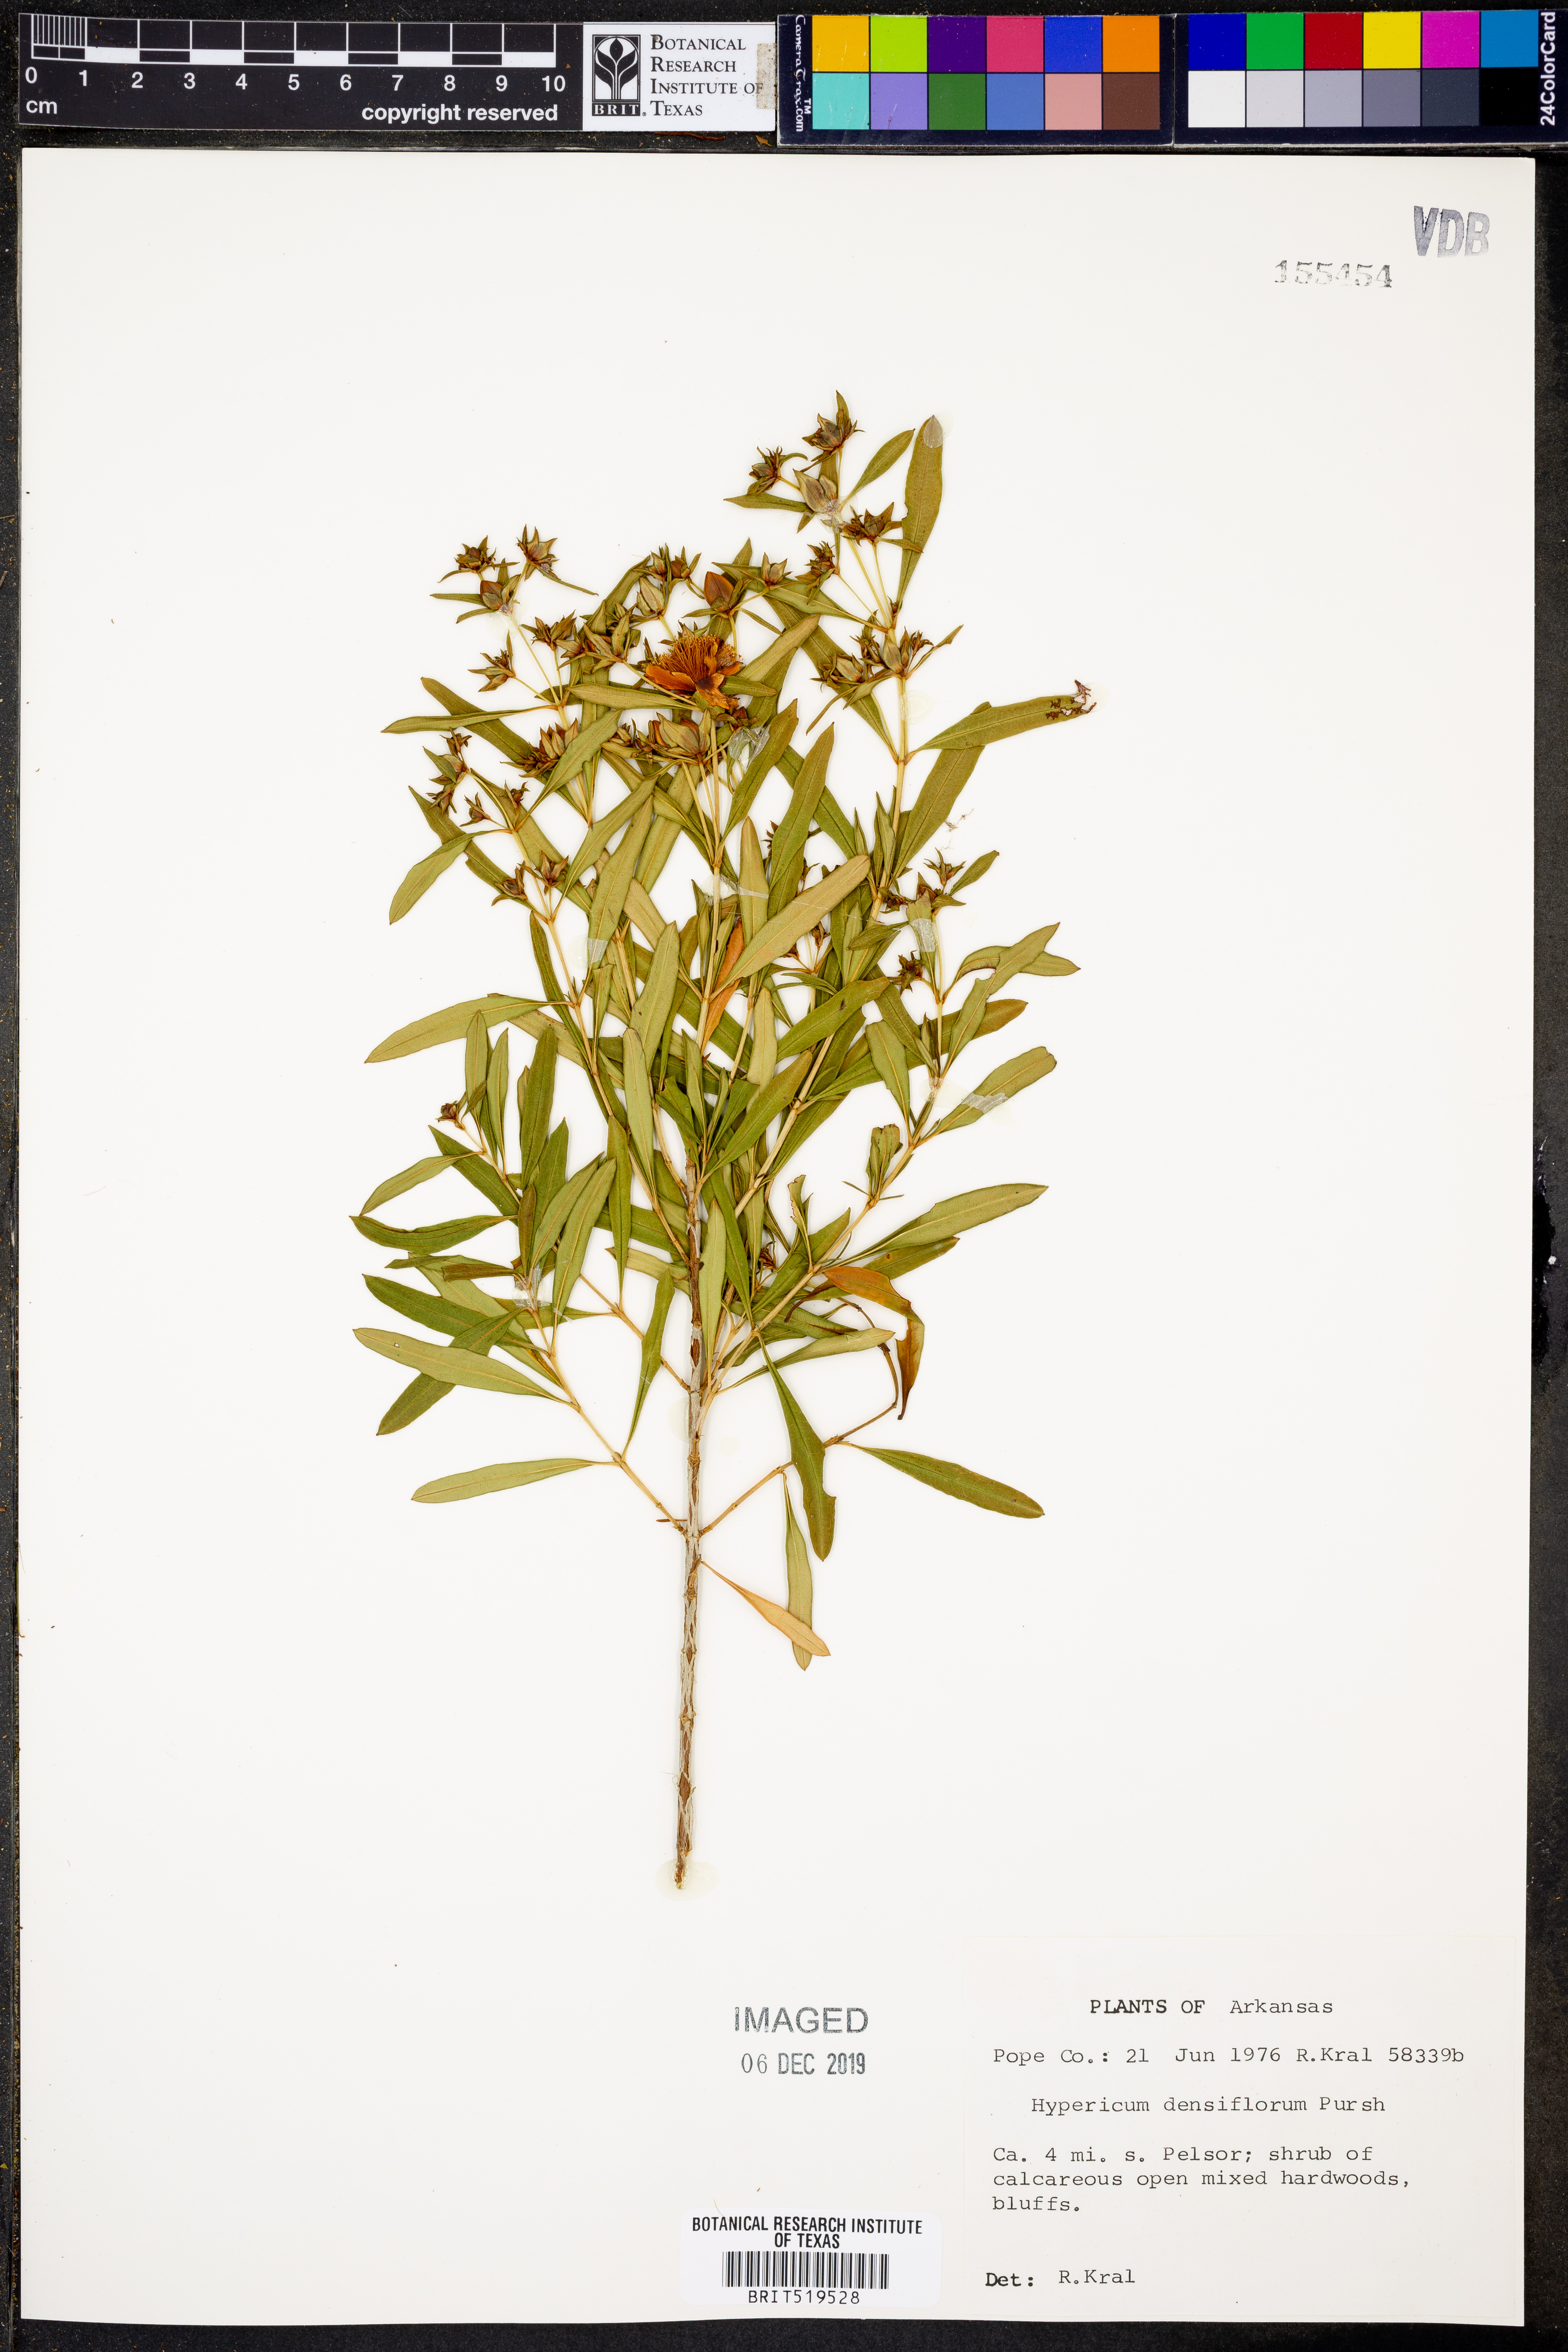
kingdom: Plantae
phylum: Tracheophyta
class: Magnoliopsida
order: Malpighiales
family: Hypericaceae
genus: Hypericum
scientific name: Hypericum densiflorum
